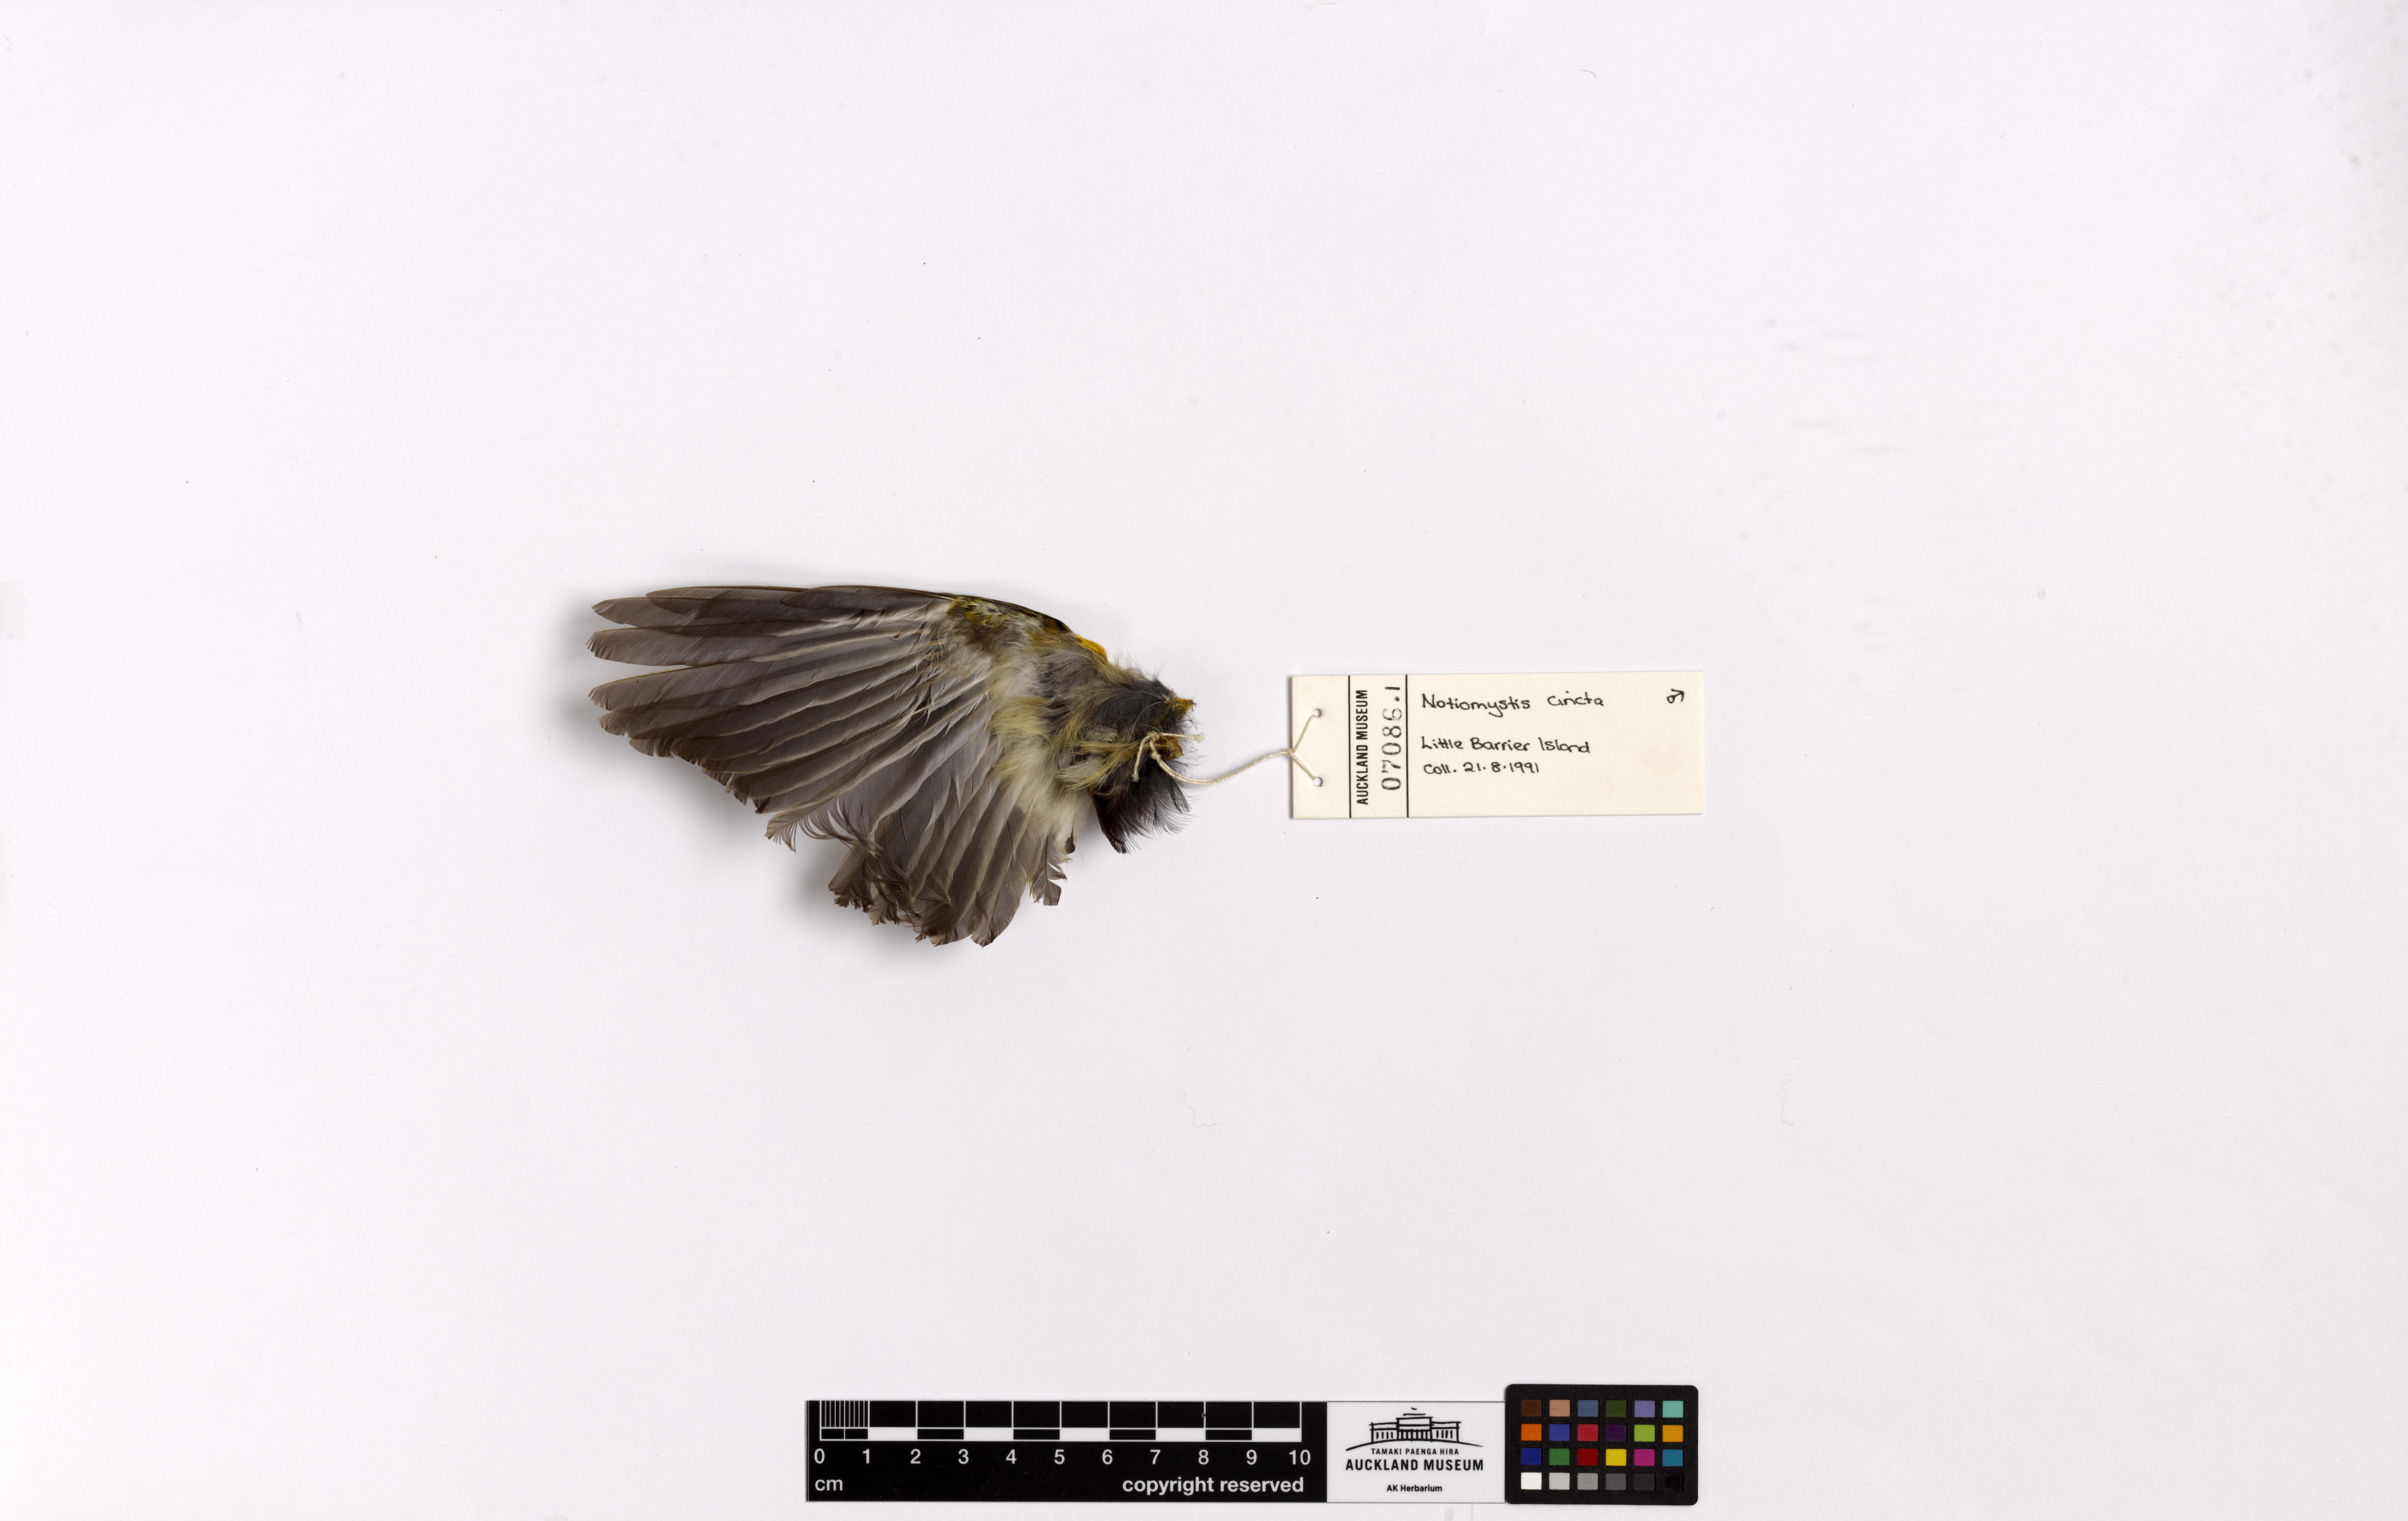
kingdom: Animalia
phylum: Chordata
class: Aves
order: Passeriformes
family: Notiomystidae
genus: Notiomystis
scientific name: Notiomystis cincta
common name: Stitchbird
